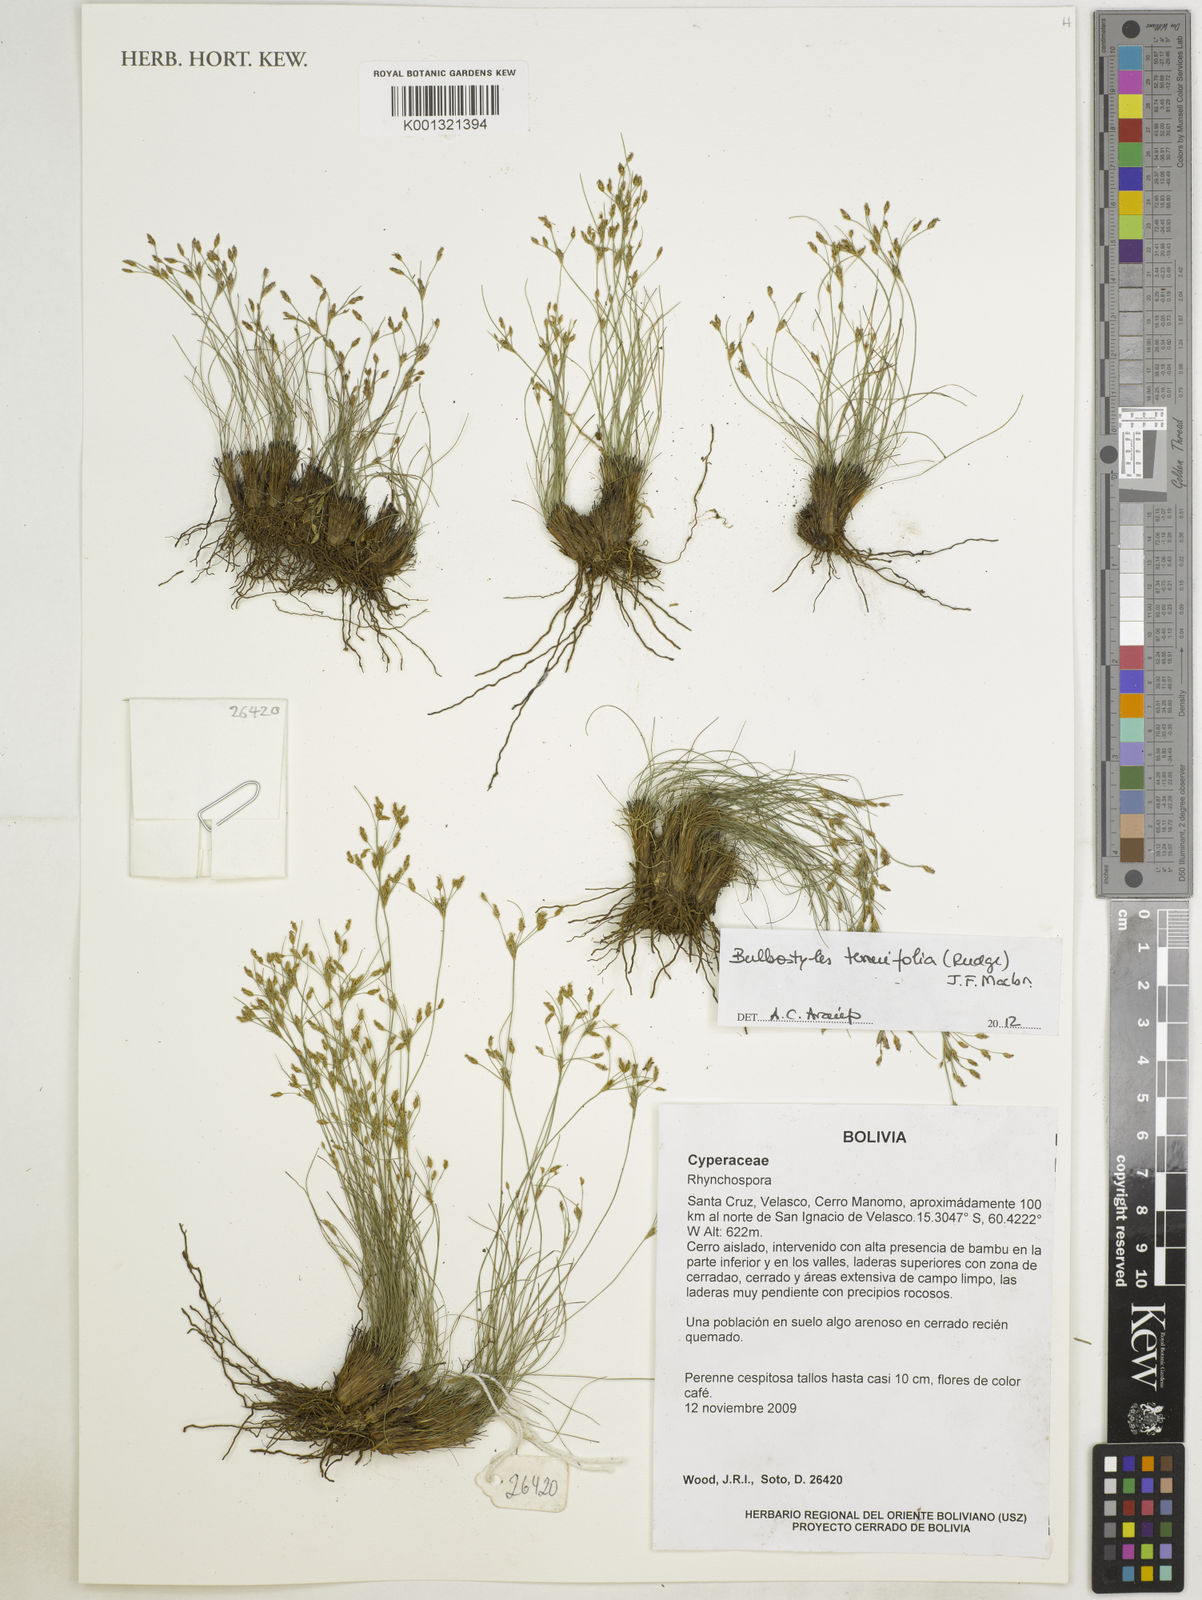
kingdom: Plantae
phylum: Tracheophyta
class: Liliopsida
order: Poales
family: Cyperaceae
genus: Bulbostylis
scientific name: Bulbostylis tenuifolia
